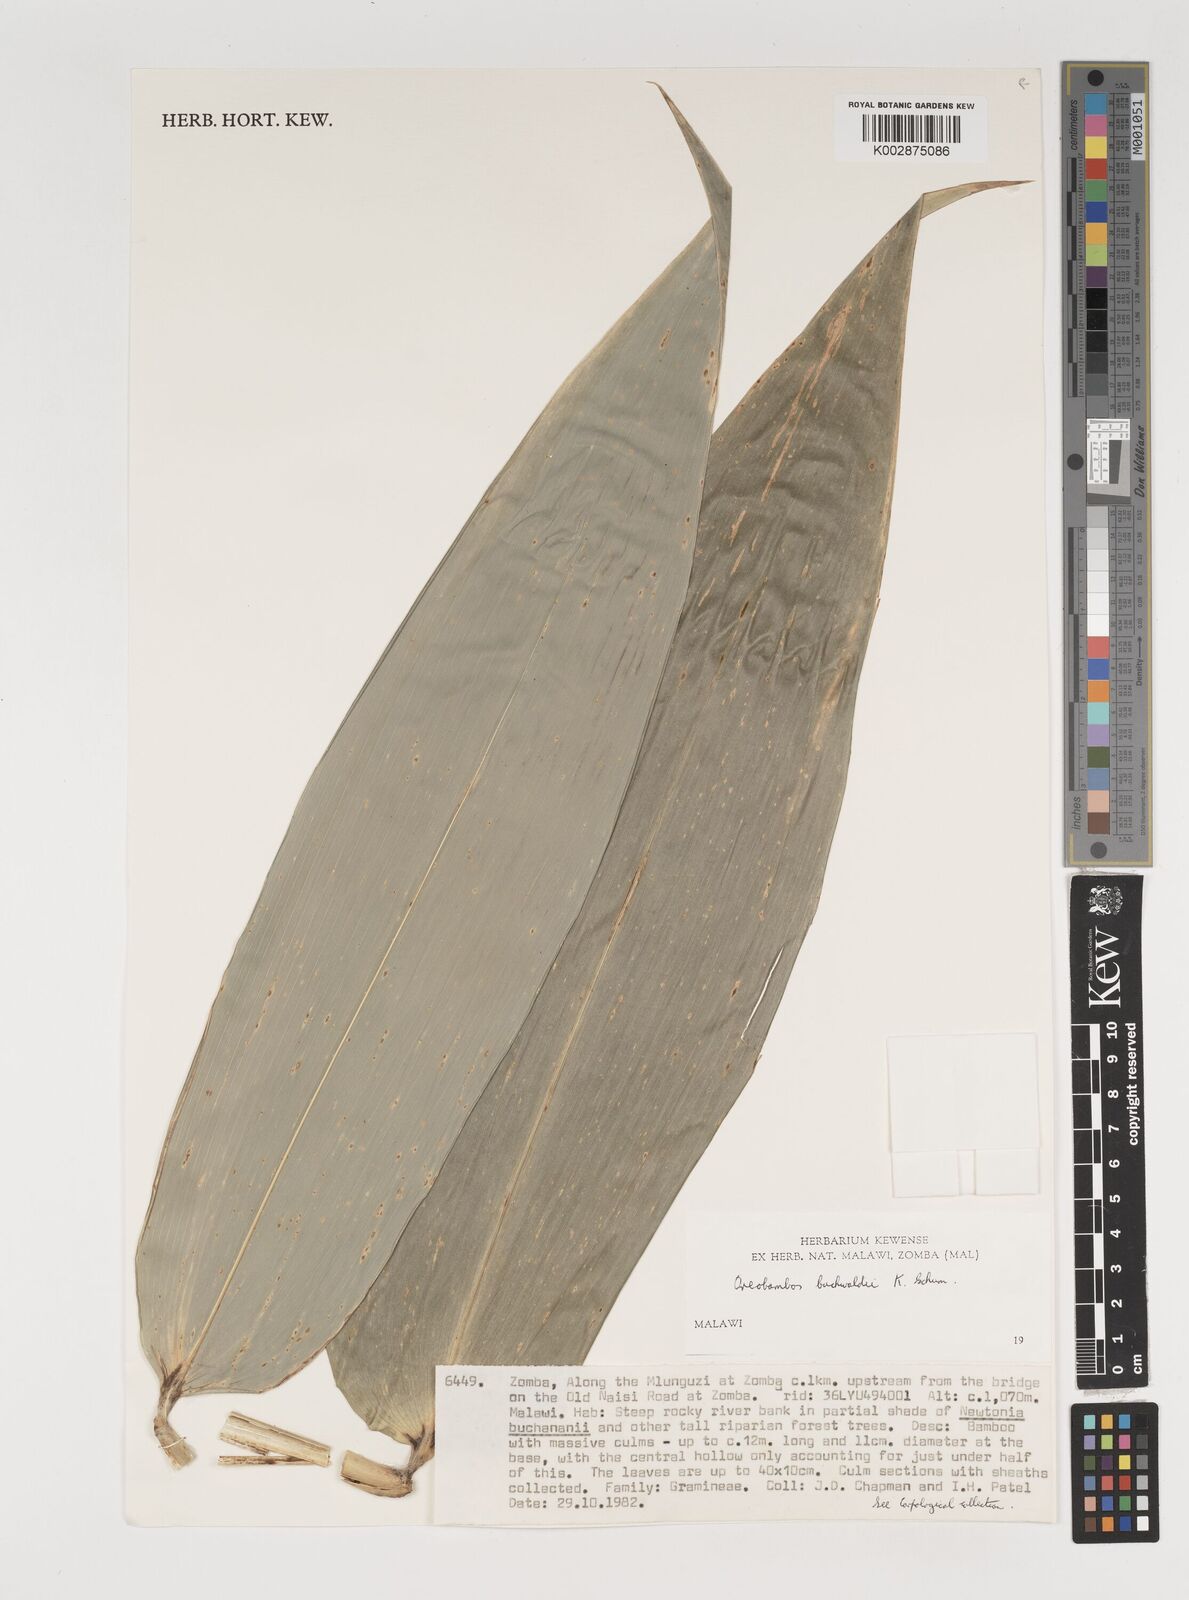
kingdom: Plantae
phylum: Tracheophyta
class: Liliopsida
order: Poales
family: Poaceae
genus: Oreobambos
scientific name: Oreobambos buchwaldii
